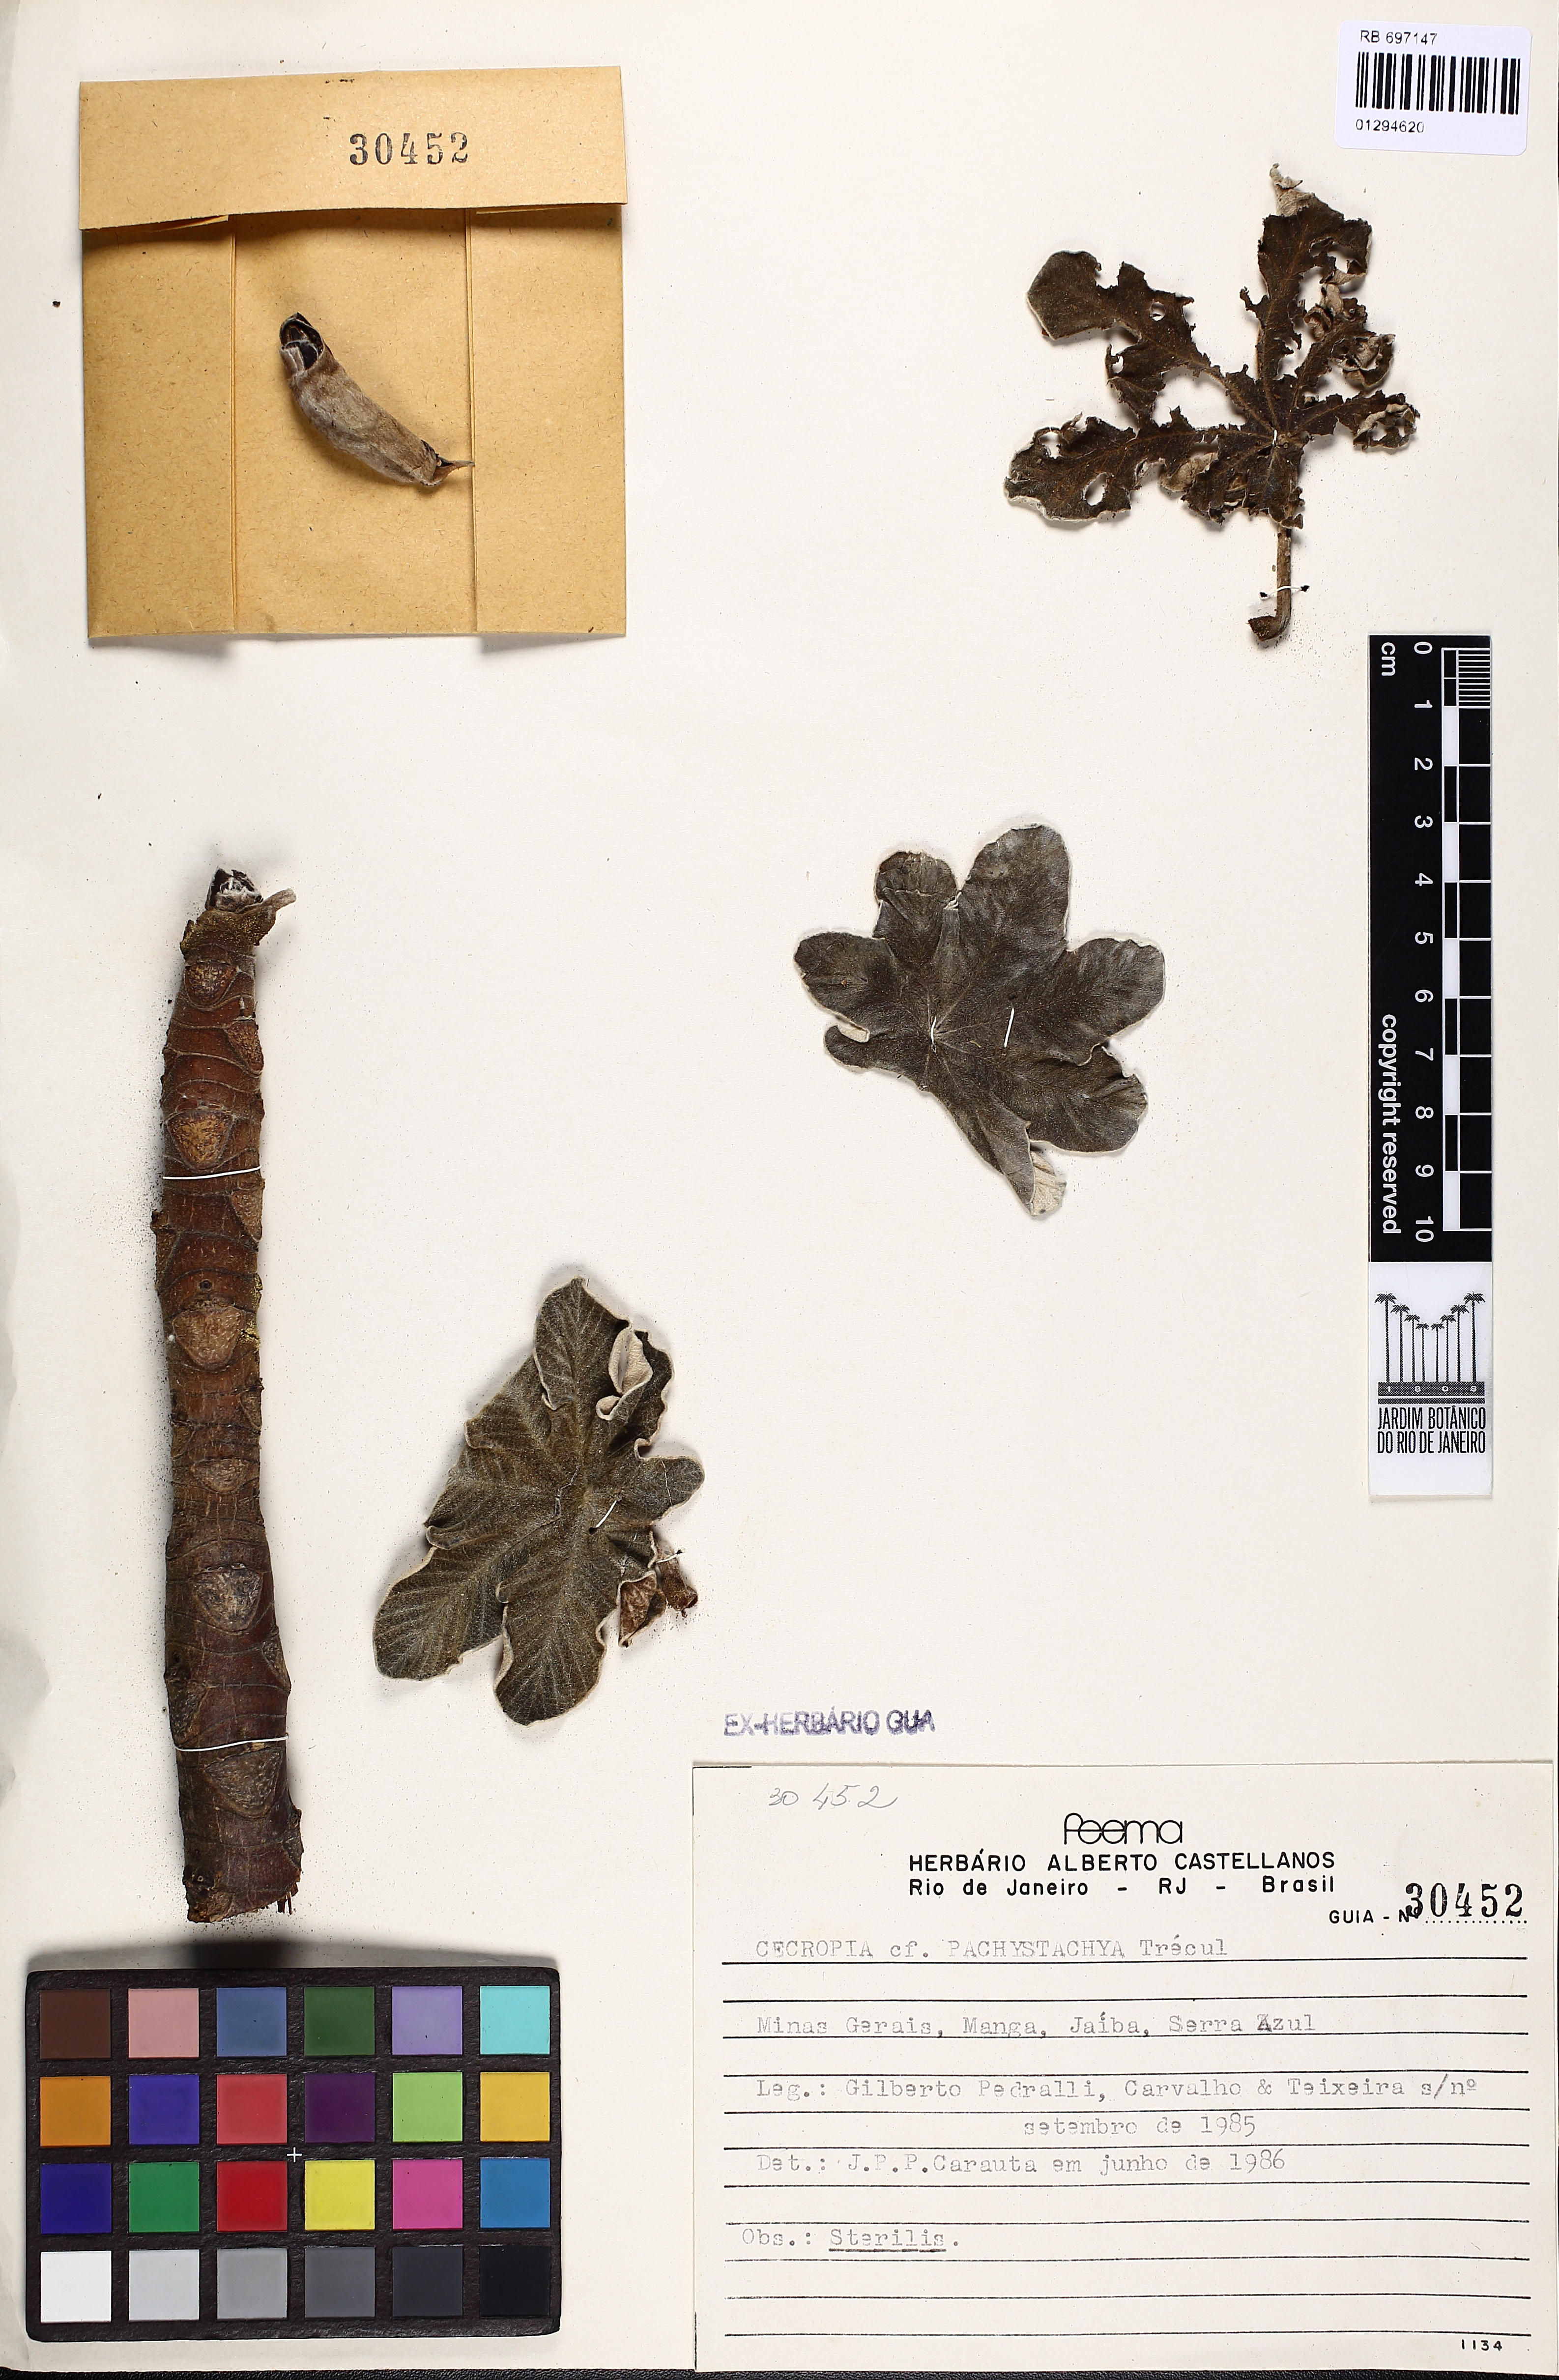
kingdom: Plantae
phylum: Tracheophyta
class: Magnoliopsida
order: Rosales
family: Urticaceae
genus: Cecropia
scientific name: Cecropia pachystachya
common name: Ambay pumpwood
